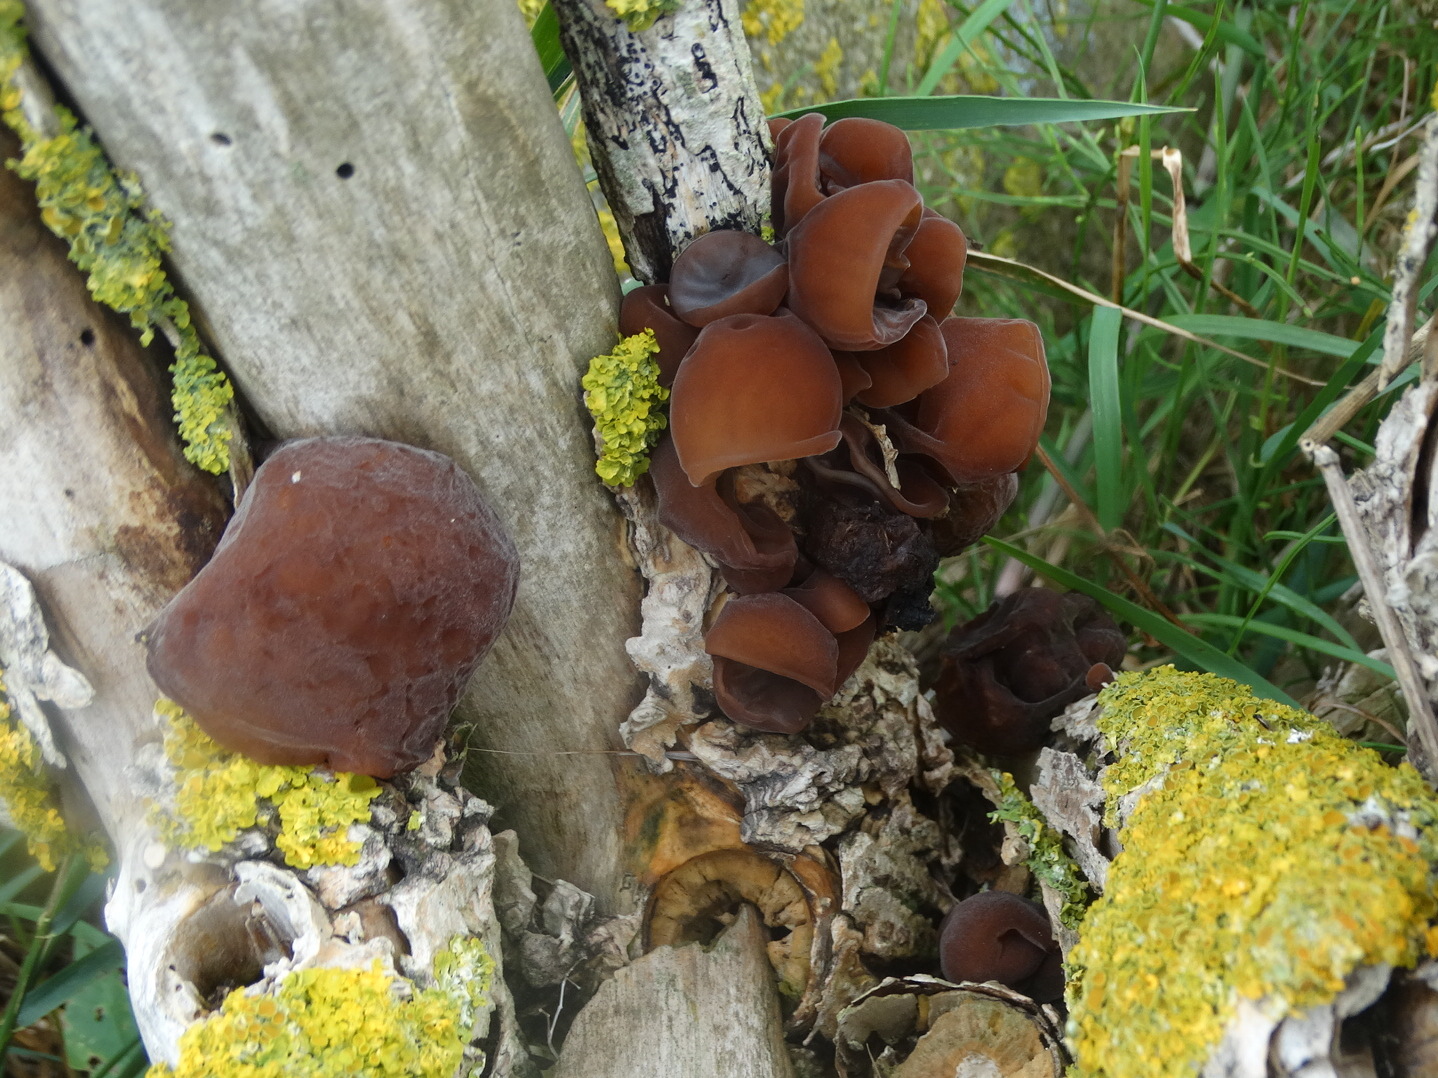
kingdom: Fungi
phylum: Basidiomycota
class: Agaricomycetes
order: Auriculariales
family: Auriculariaceae
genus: Auricularia
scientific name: Auricularia auricula-judae
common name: almindelig judasøre
